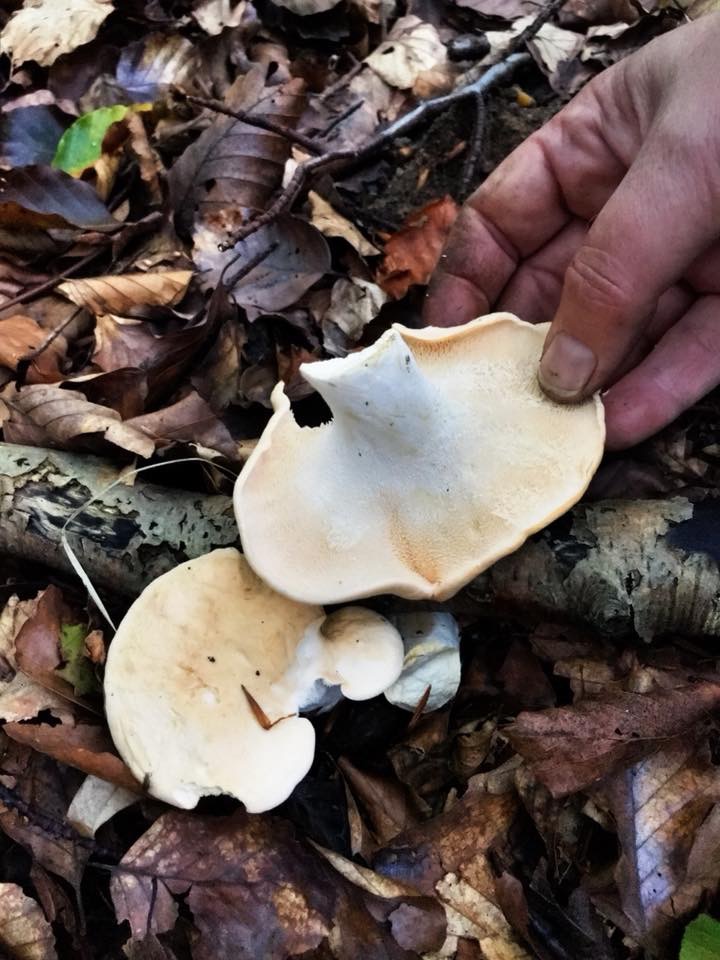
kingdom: Fungi
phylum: Basidiomycota
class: Agaricomycetes
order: Cantharellales
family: Hydnaceae
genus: Hydnum
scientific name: Hydnum repandum
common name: almindelig pigsvamp
